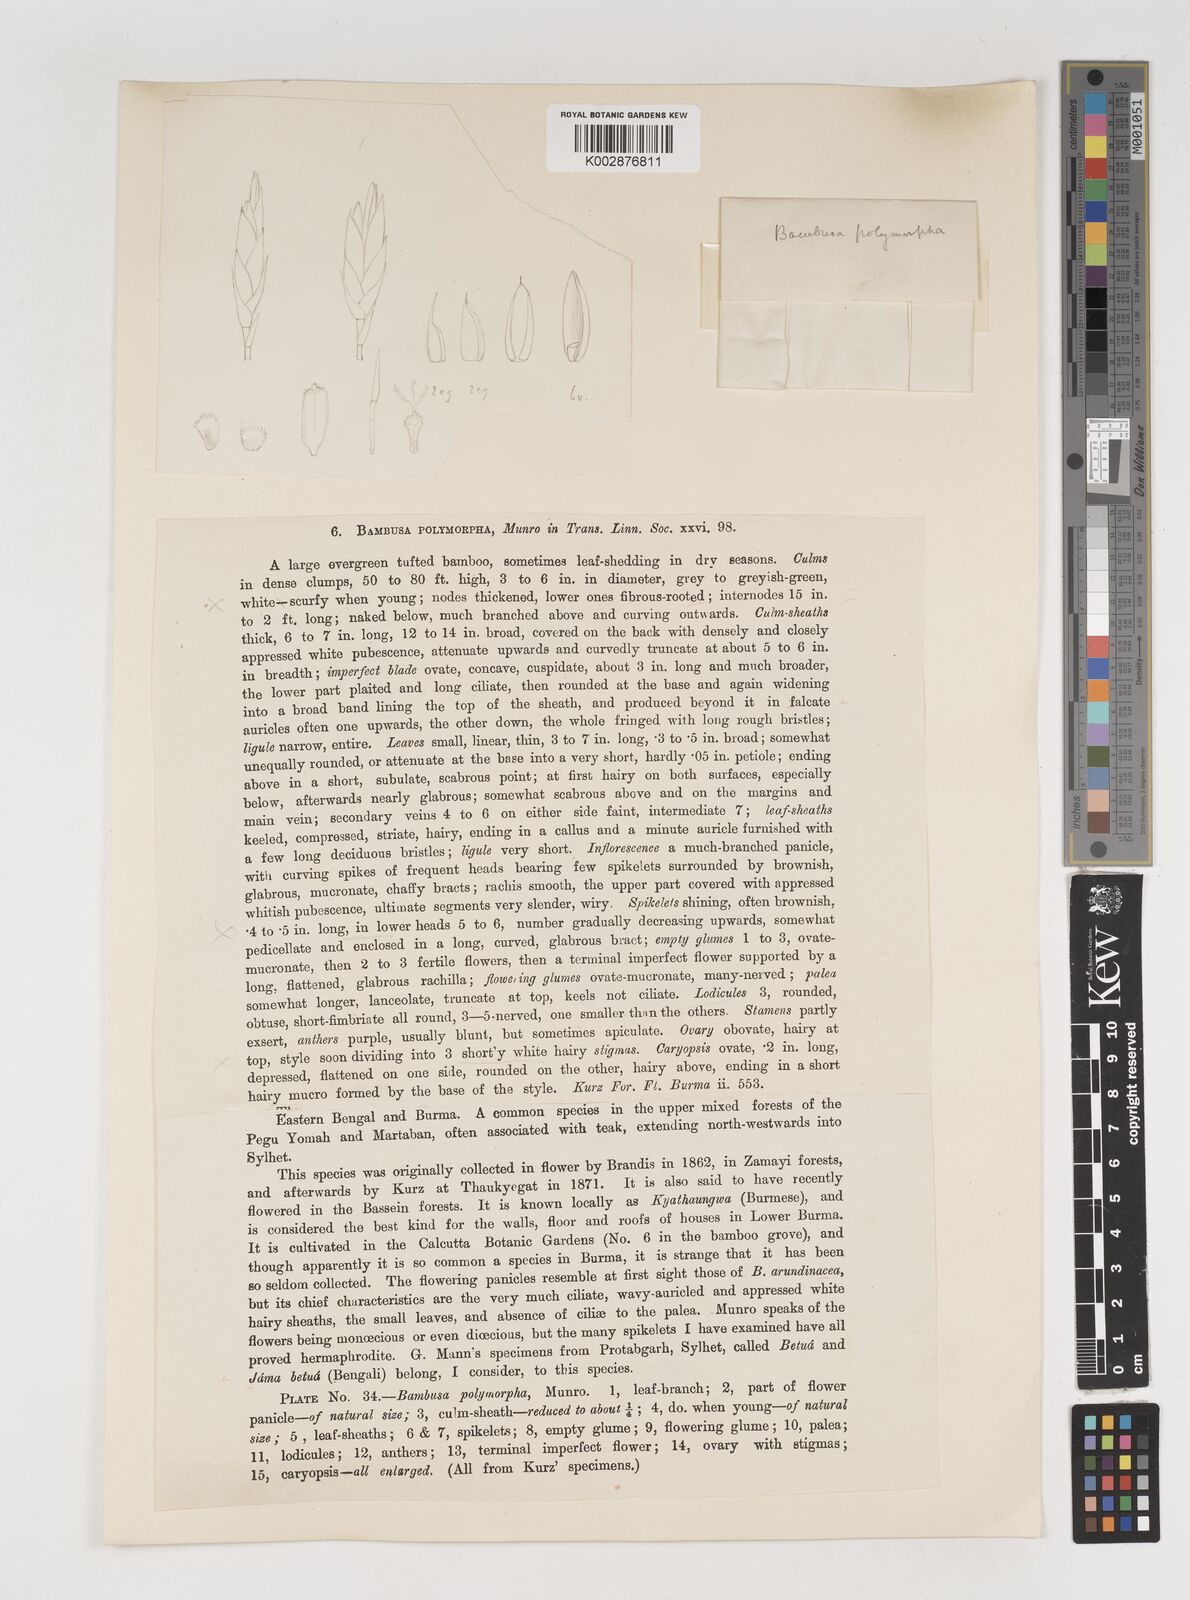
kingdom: Plantae
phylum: Tracheophyta
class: Liliopsida
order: Poales
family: Poaceae
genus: Bambusa
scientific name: Bambusa polymorpha
